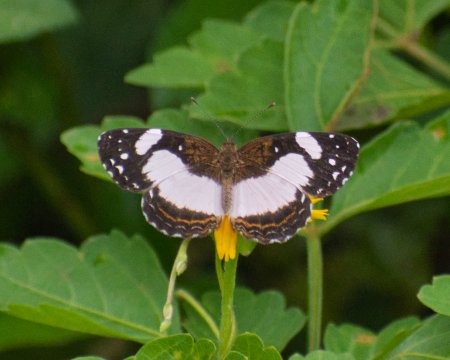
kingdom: Animalia
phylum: Arthropoda
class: Insecta
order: Lepidoptera
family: Nymphalidae
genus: Janatella
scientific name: Janatella leucodesma
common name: Whitened Crescent
